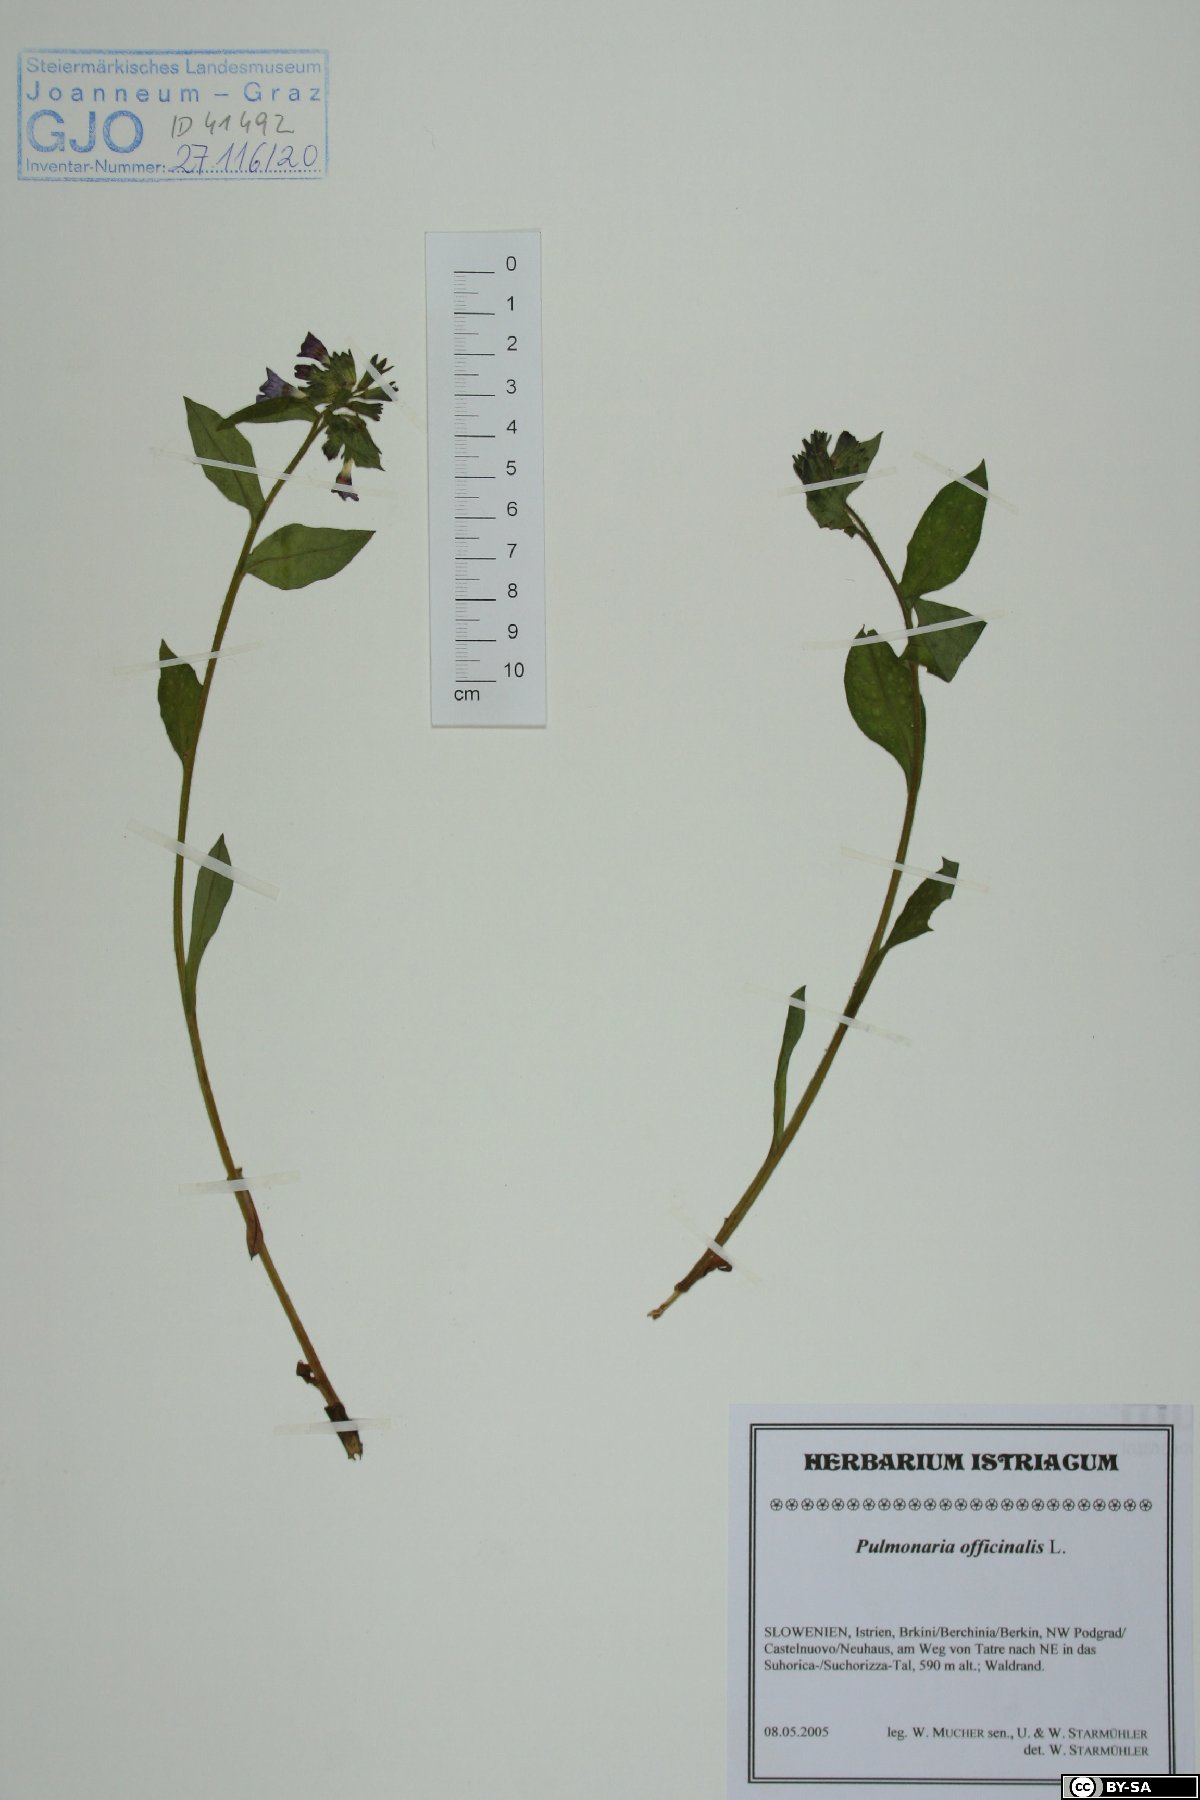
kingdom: Plantae
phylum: Tracheophyta
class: Magnoliopsida
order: Boraginales
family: Boraginaceae
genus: Pulmonaria
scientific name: Pulmonaria officinalis
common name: Lungwort
